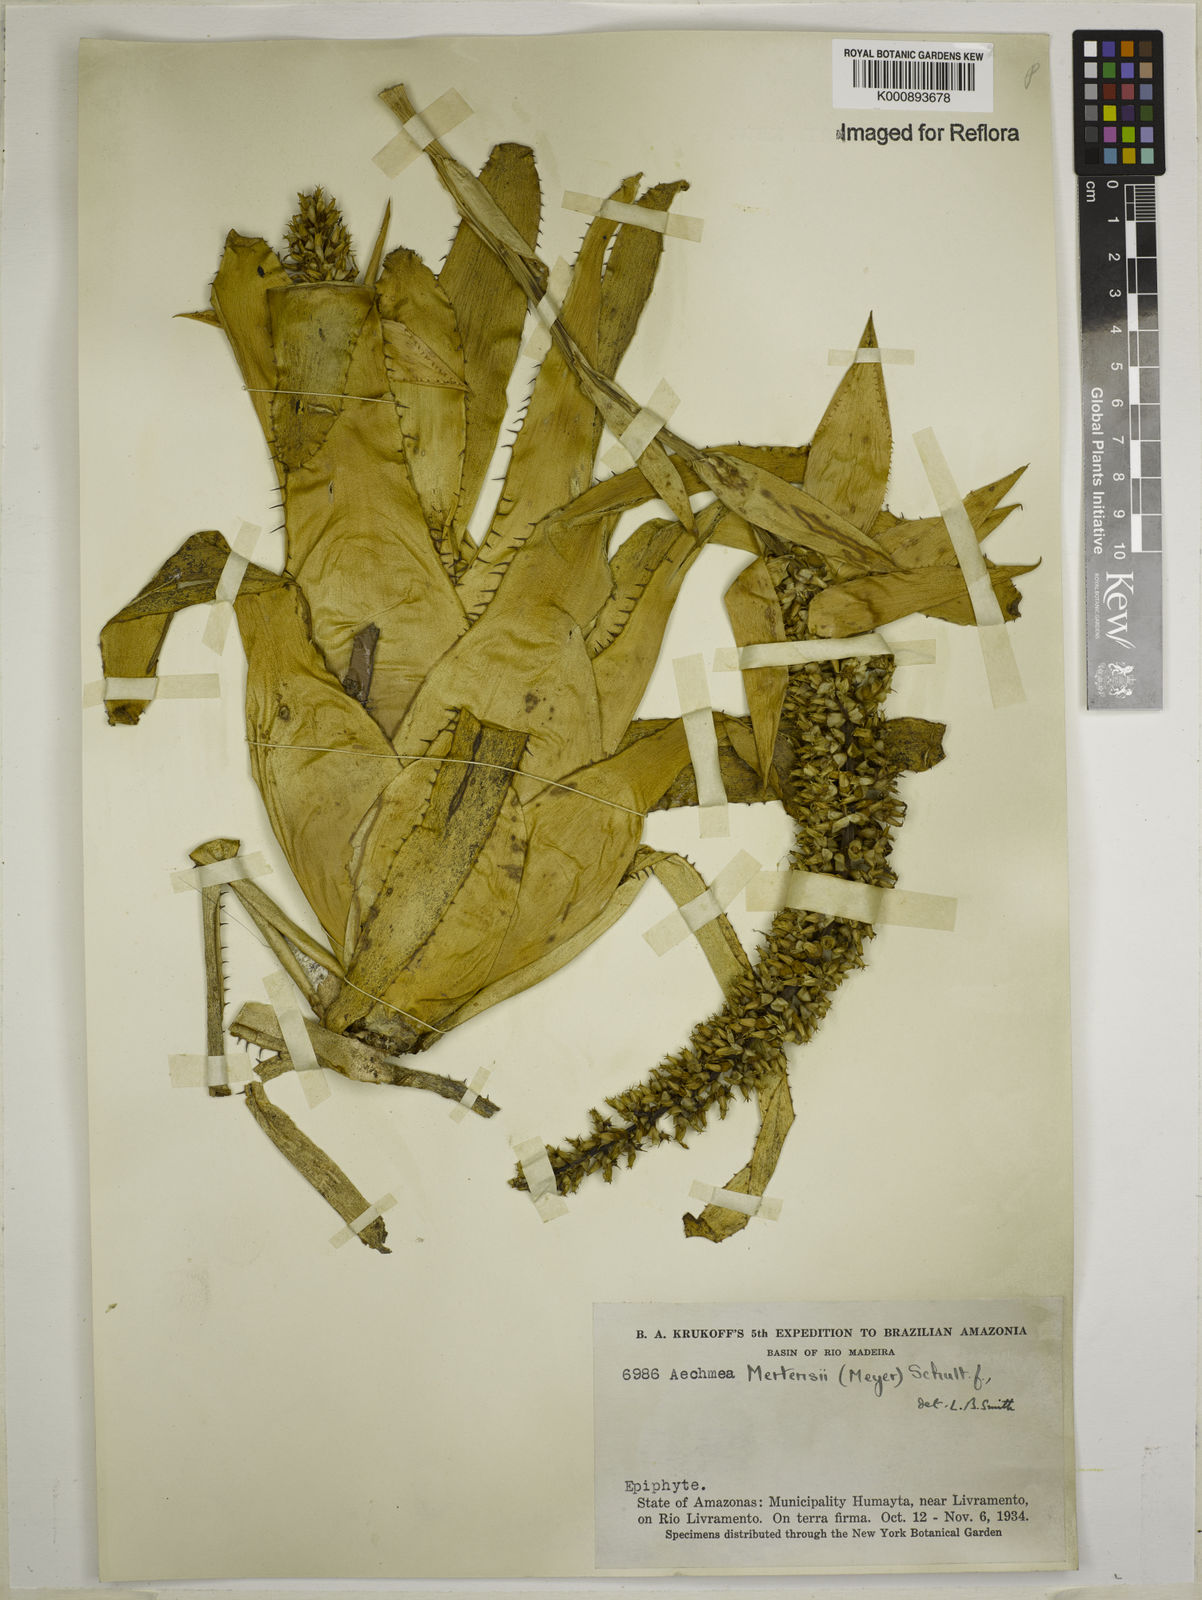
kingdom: Plantae
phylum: Tracheophyta
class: Liliopsida
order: Poales
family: Bromeliaceae
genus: Aechmea
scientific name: Aechmea mertensii
